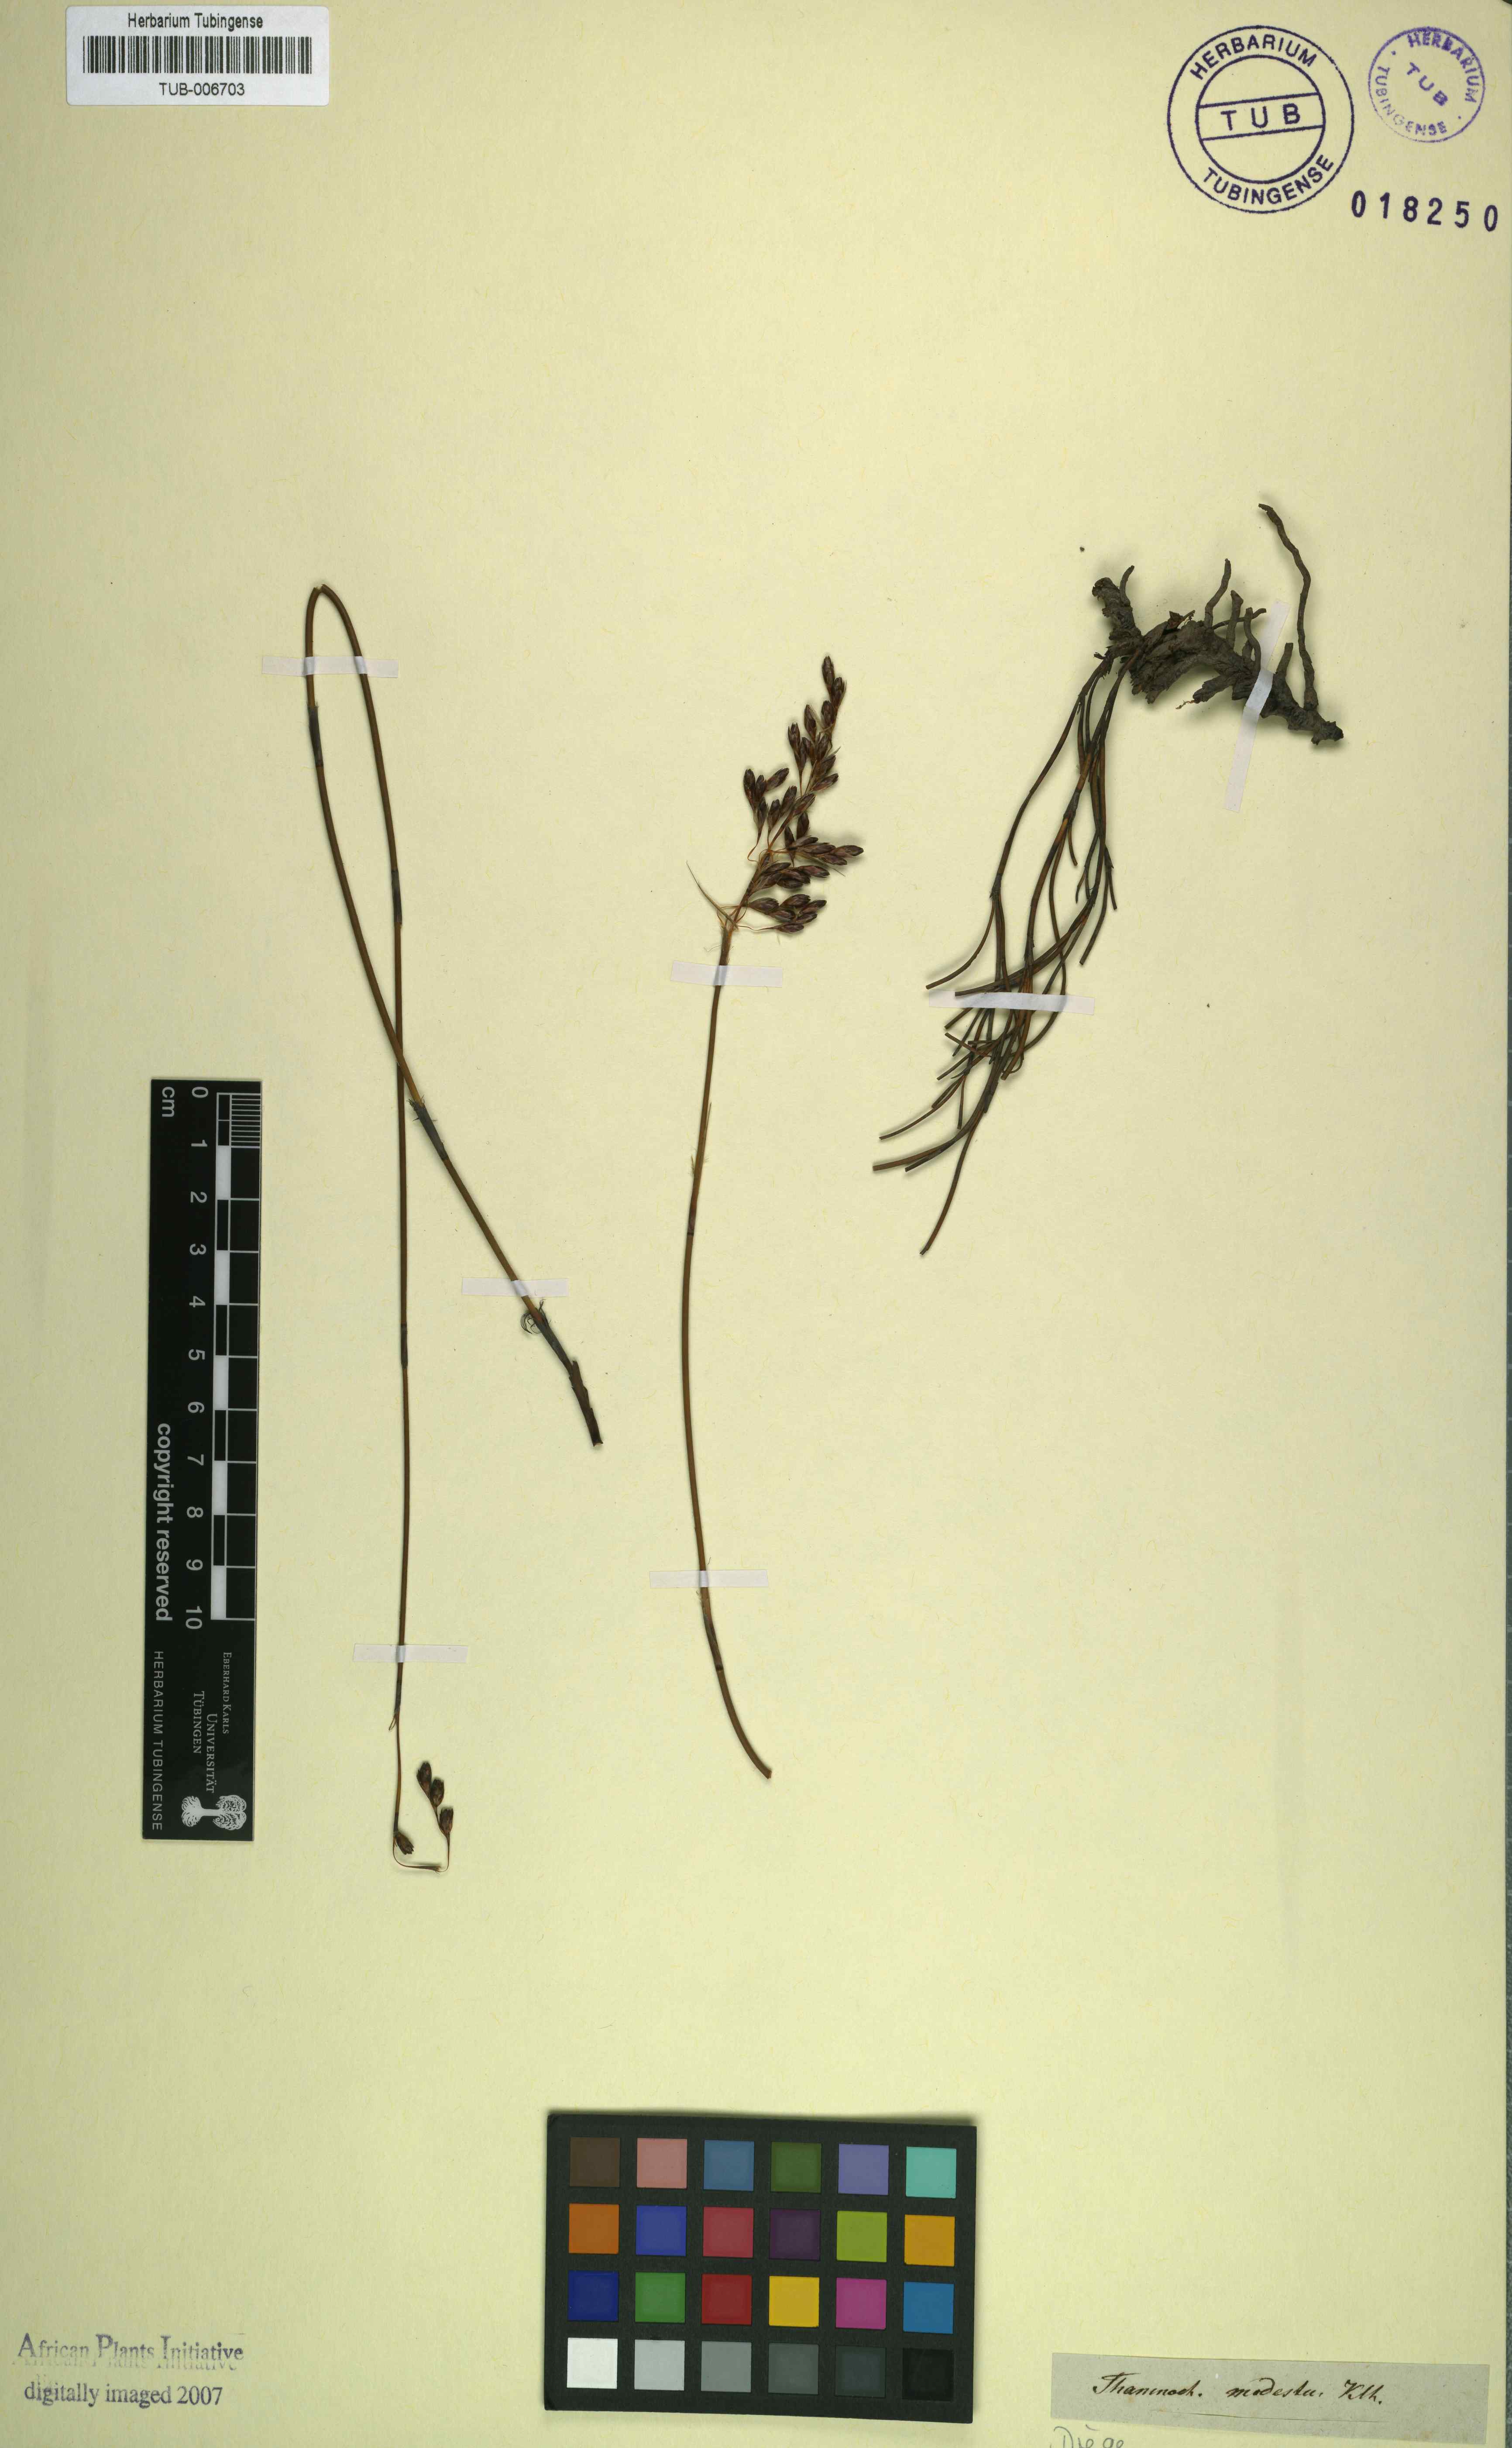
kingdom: Plantae
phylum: Tracheophyta
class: Liliopsida
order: Poales
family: Restionaceae
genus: Rhodocoma
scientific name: Rhodocoma fruticosa
